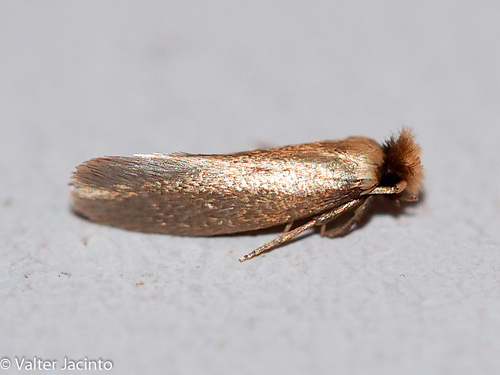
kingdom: Animalia
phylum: Arthropoda
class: Insecta
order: Lepidoptera
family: Tineidae
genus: Perissomastix
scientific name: Perissomastix agenjoi
